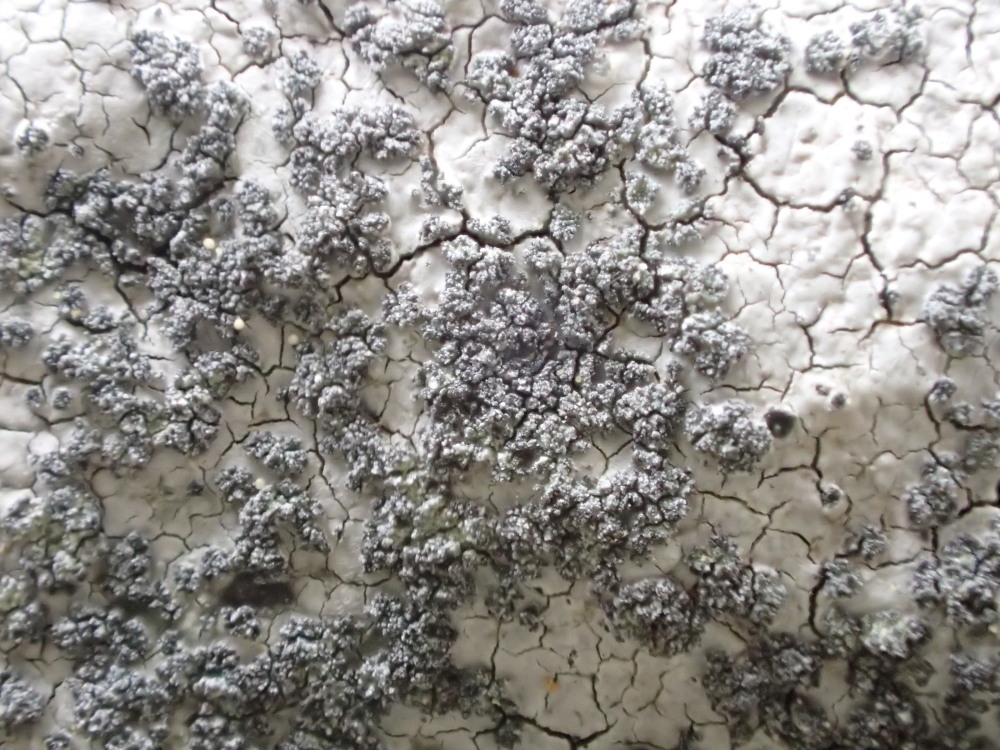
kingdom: Fungi
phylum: Ascomycota
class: Lecanoromycetes
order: Lecideales
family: Lecideaceae
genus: Porpidia
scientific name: Porpidia tuberculosa
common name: broget bredskivelav
